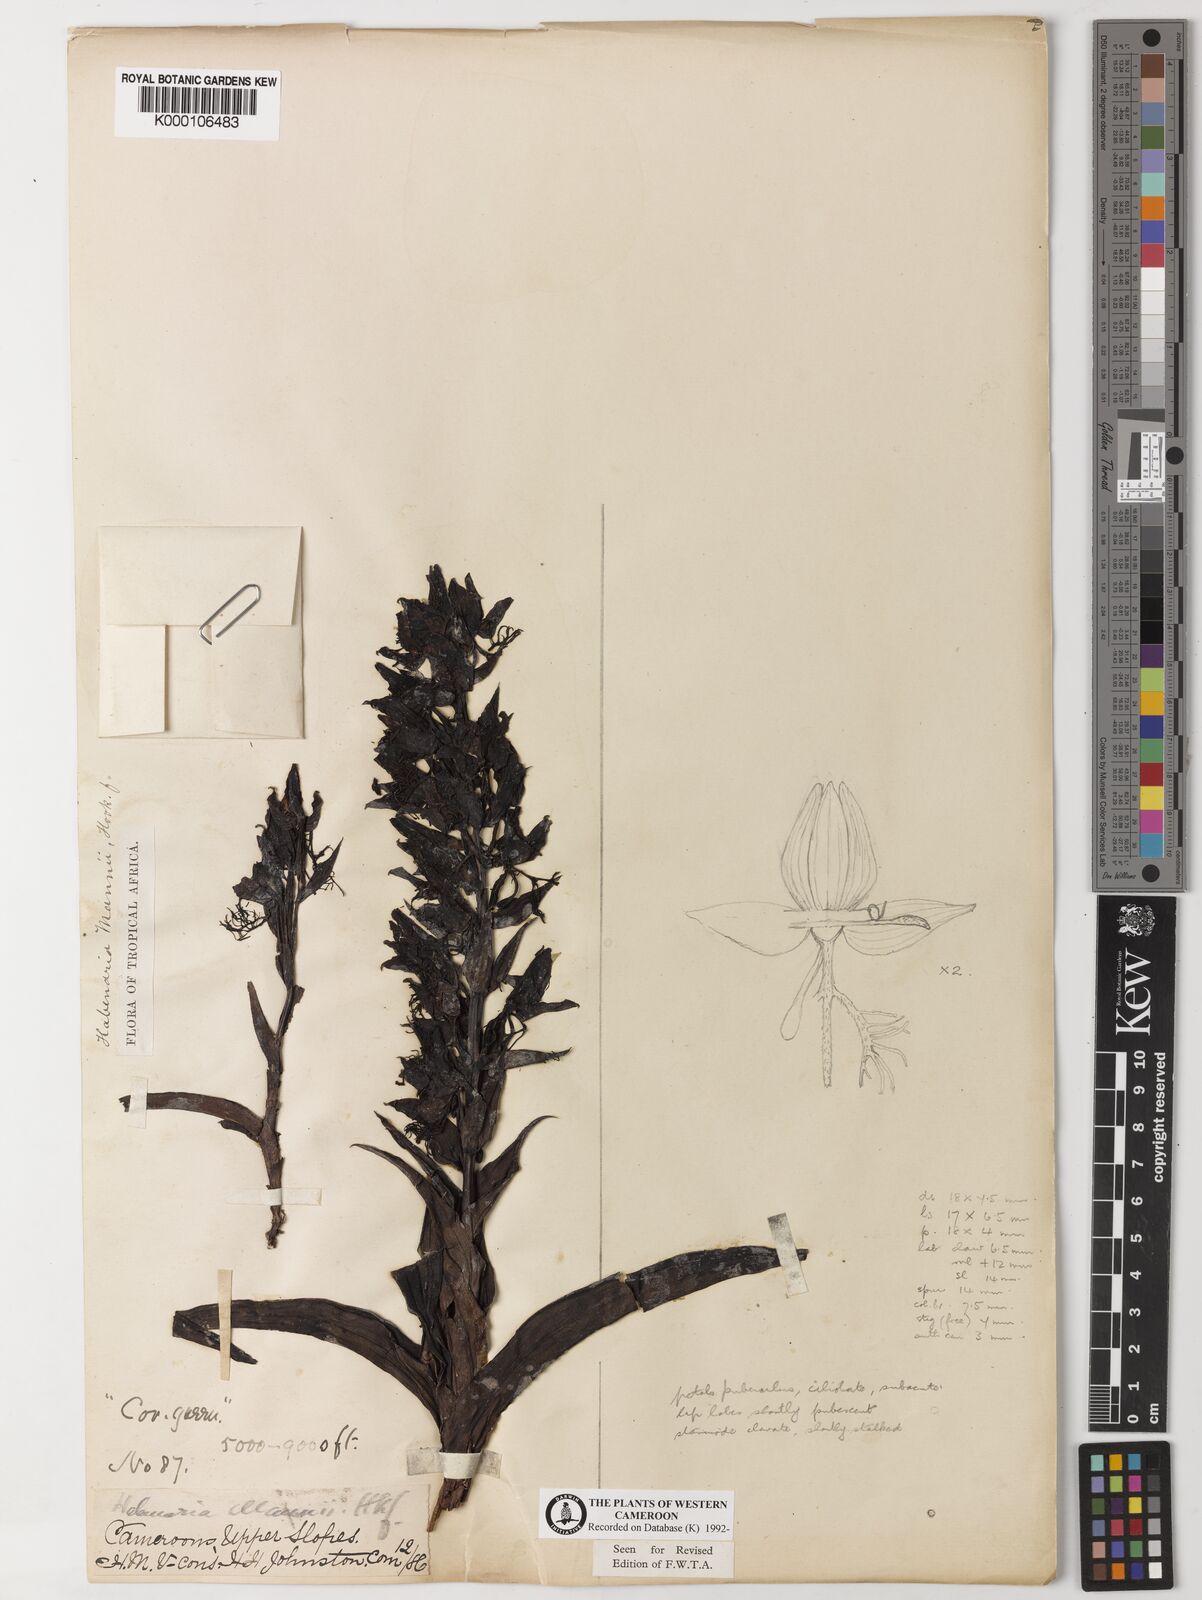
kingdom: Plantae
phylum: Tracheophyta
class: Liliopsida
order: Asparagales
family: Orchidaceae
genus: Habenaria
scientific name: Habenaria mannii
